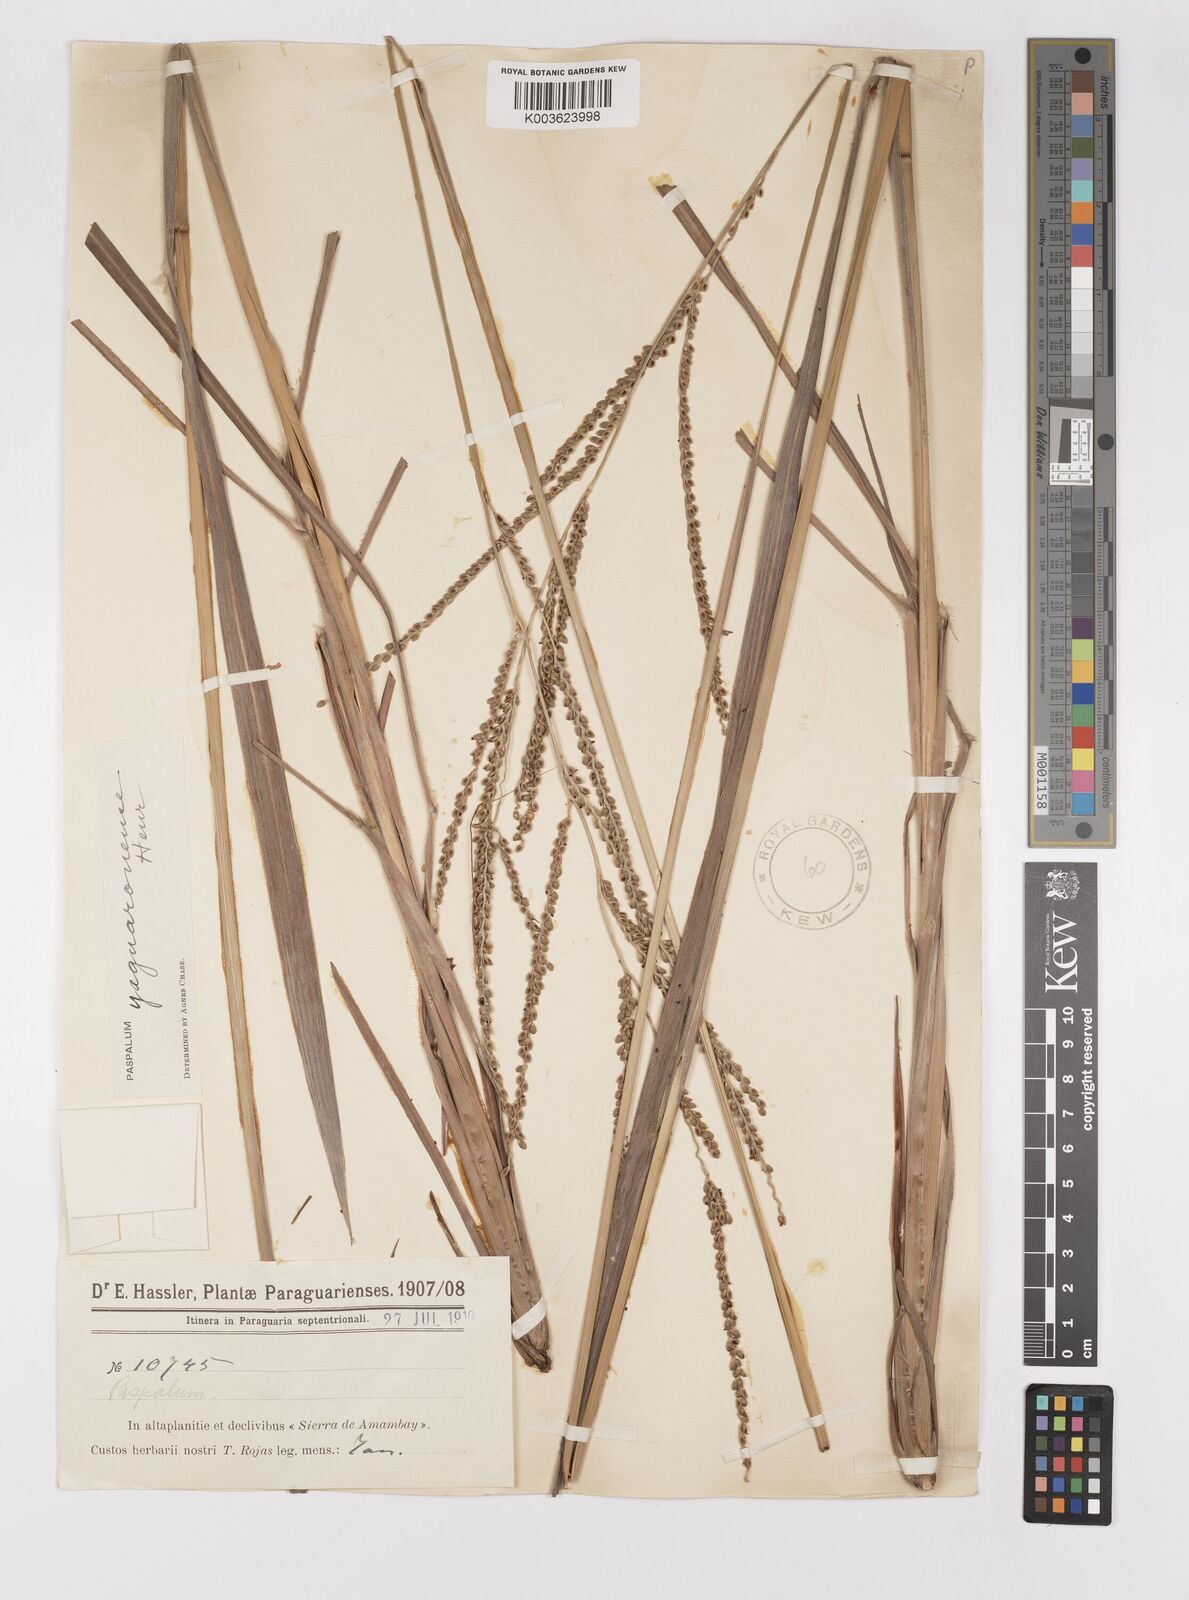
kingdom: Plantae
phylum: Tracheophyta
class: Liliopsida
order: Poales
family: Poaceae
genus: Paspalum
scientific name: Paspalum glaucescens
